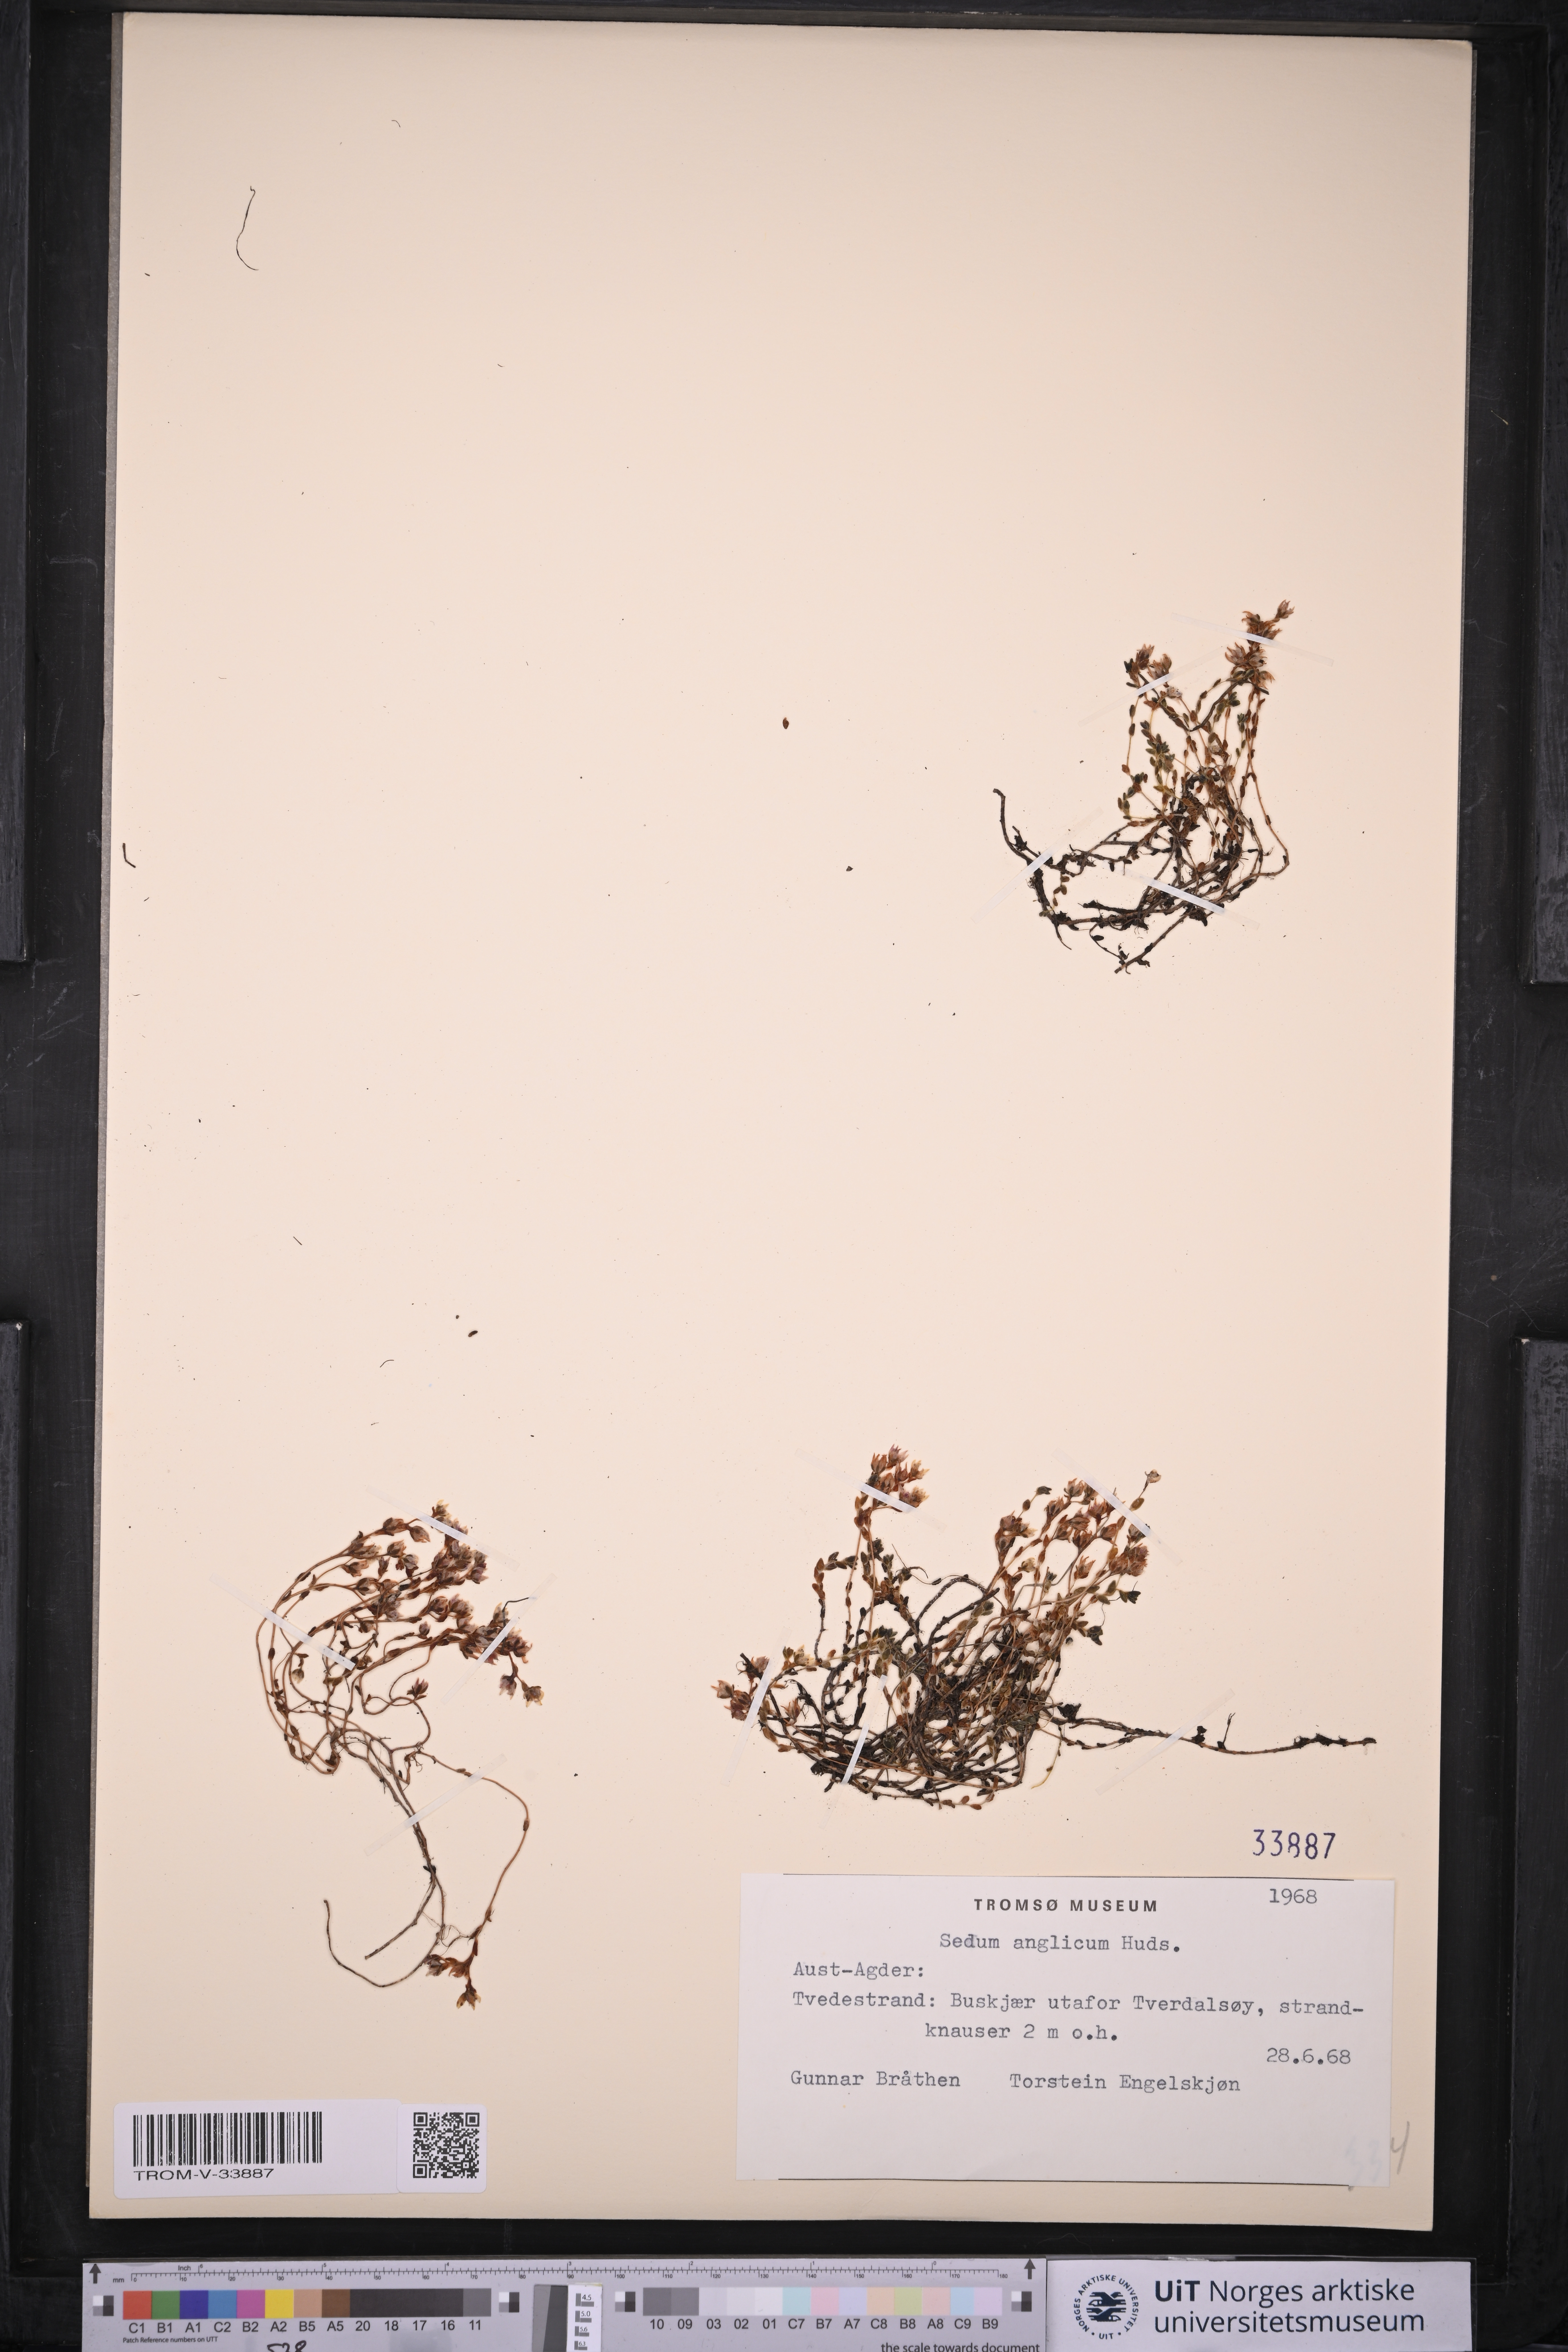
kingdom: Plantae
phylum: Tracheophyta
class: Magnoliopsida
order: Saxifragales
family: Crassulaceae
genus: Sedum
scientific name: Sedum anglicum
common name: English stonecrop
